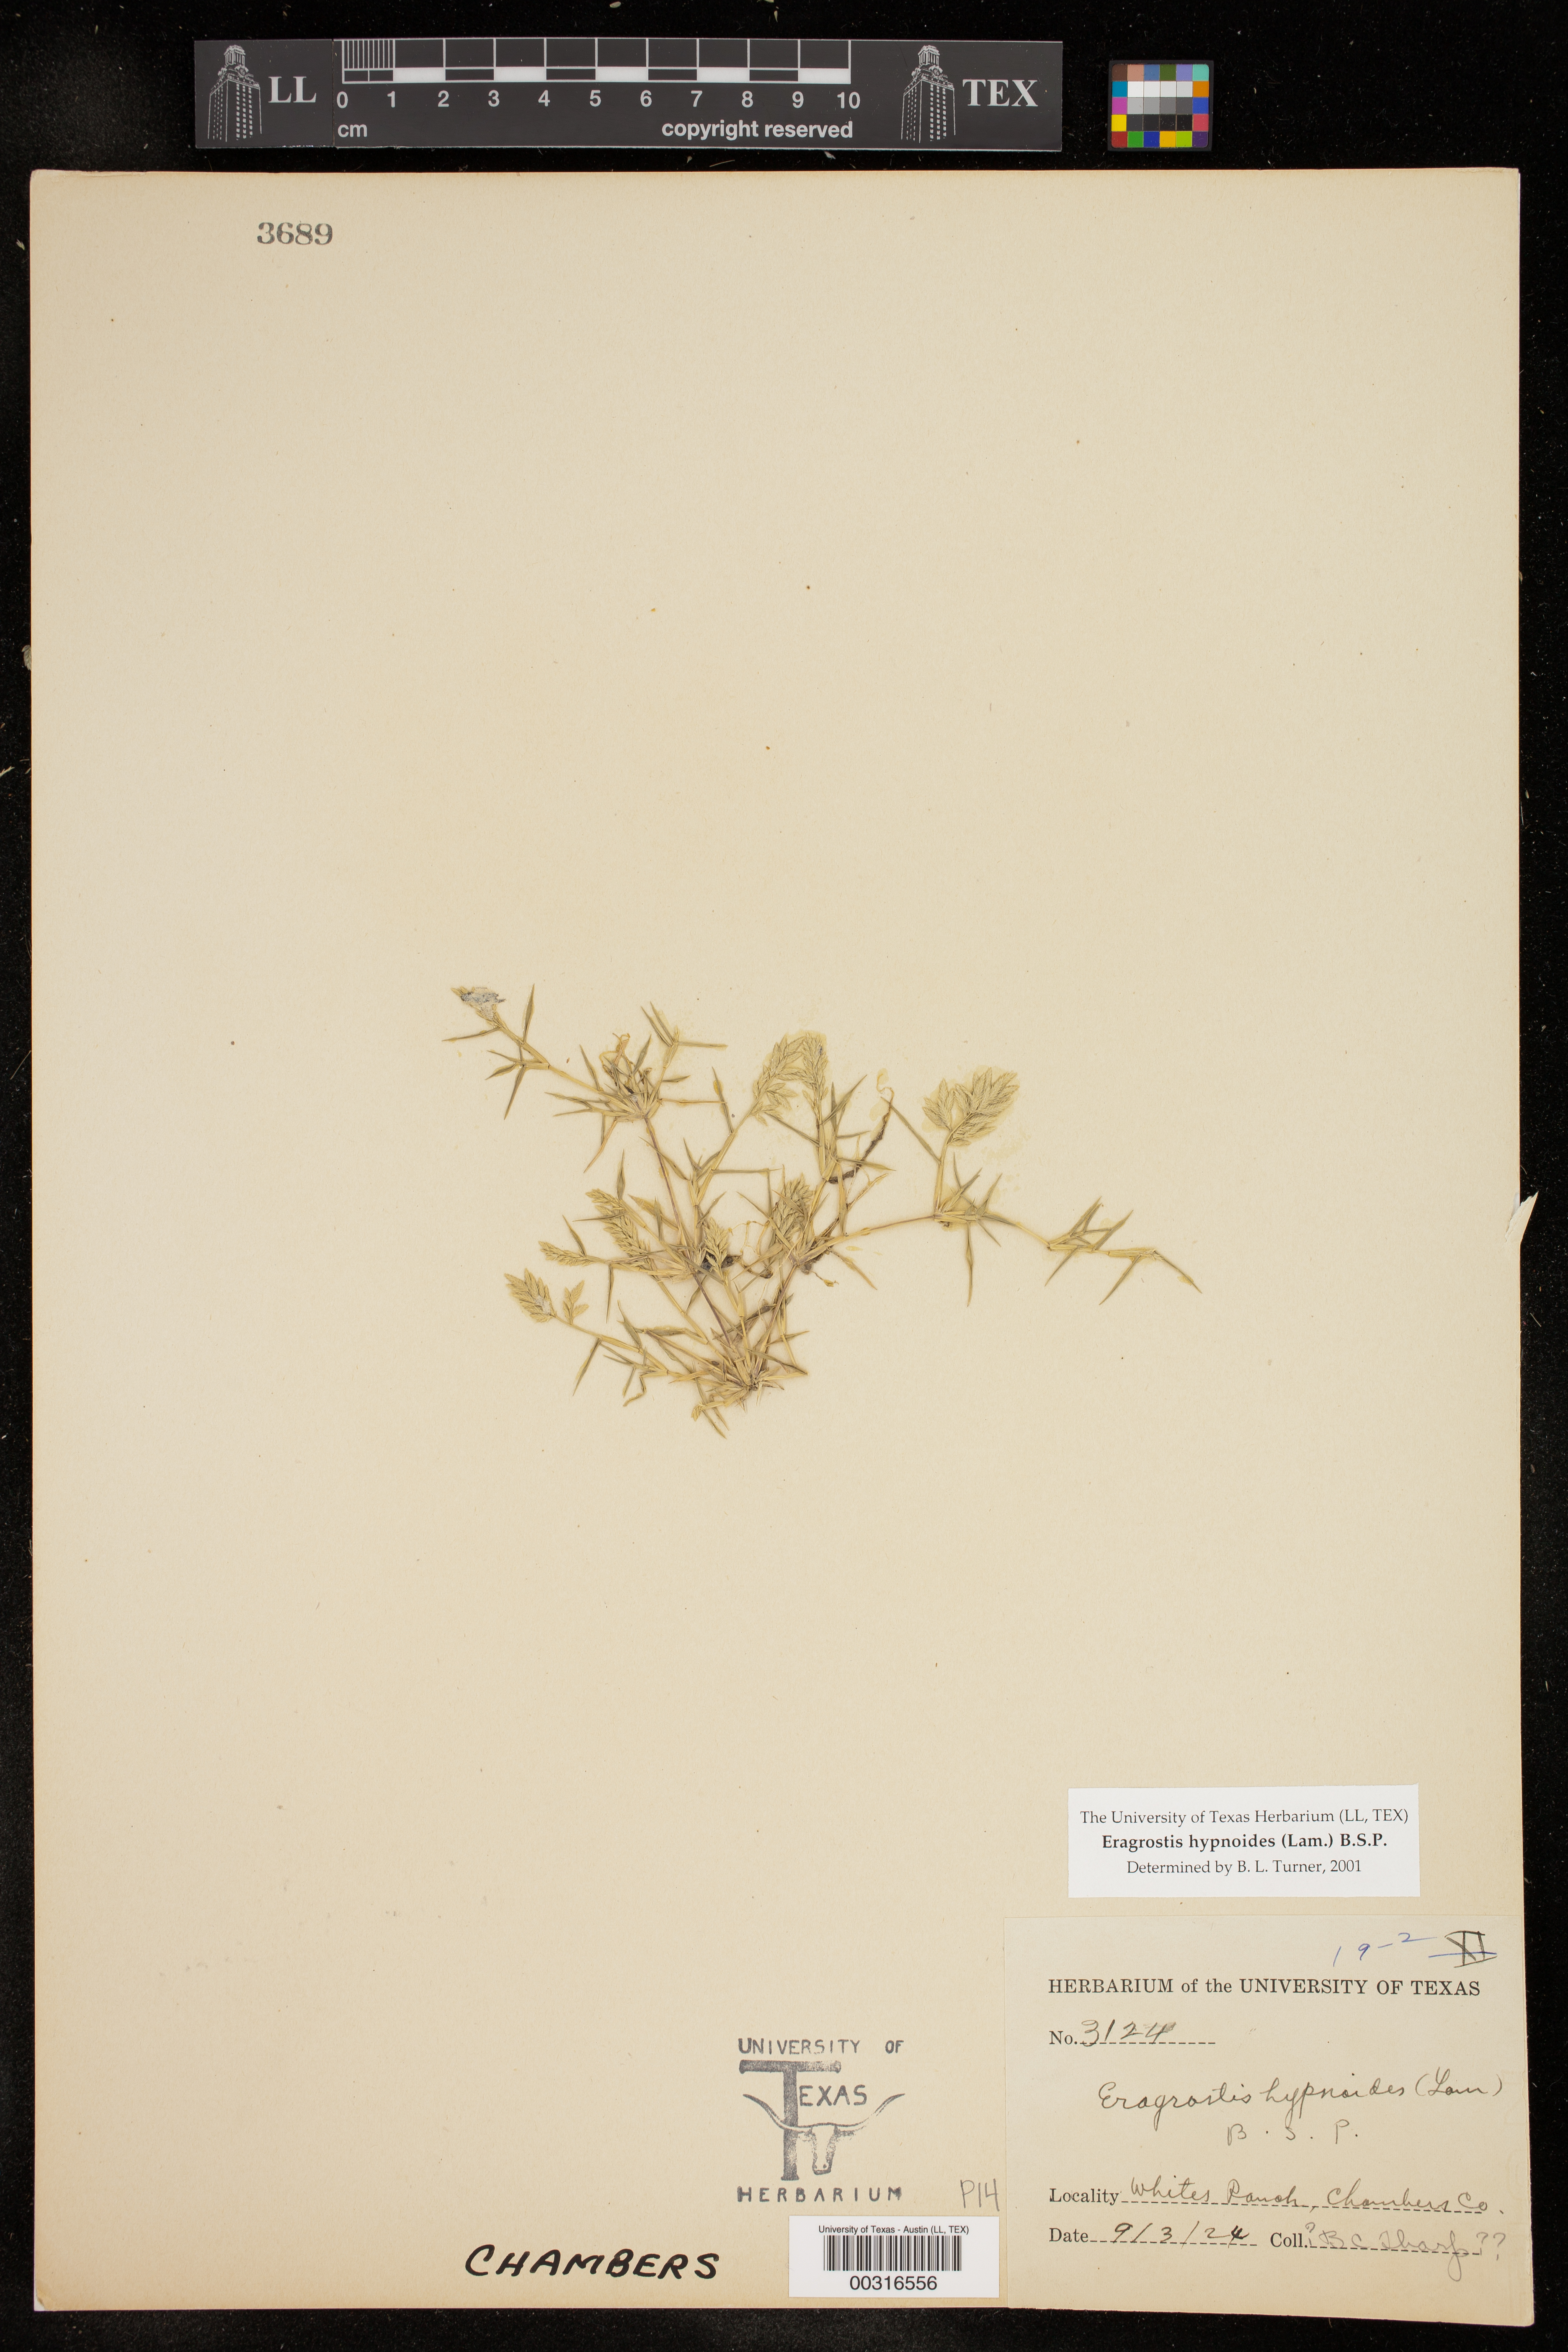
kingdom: Plantae
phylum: Tracheophyta
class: Liliopsida
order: Poales
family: Poaceae
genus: Eragrostis
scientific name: Eragrostis hypnoides
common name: Creeping love grass
